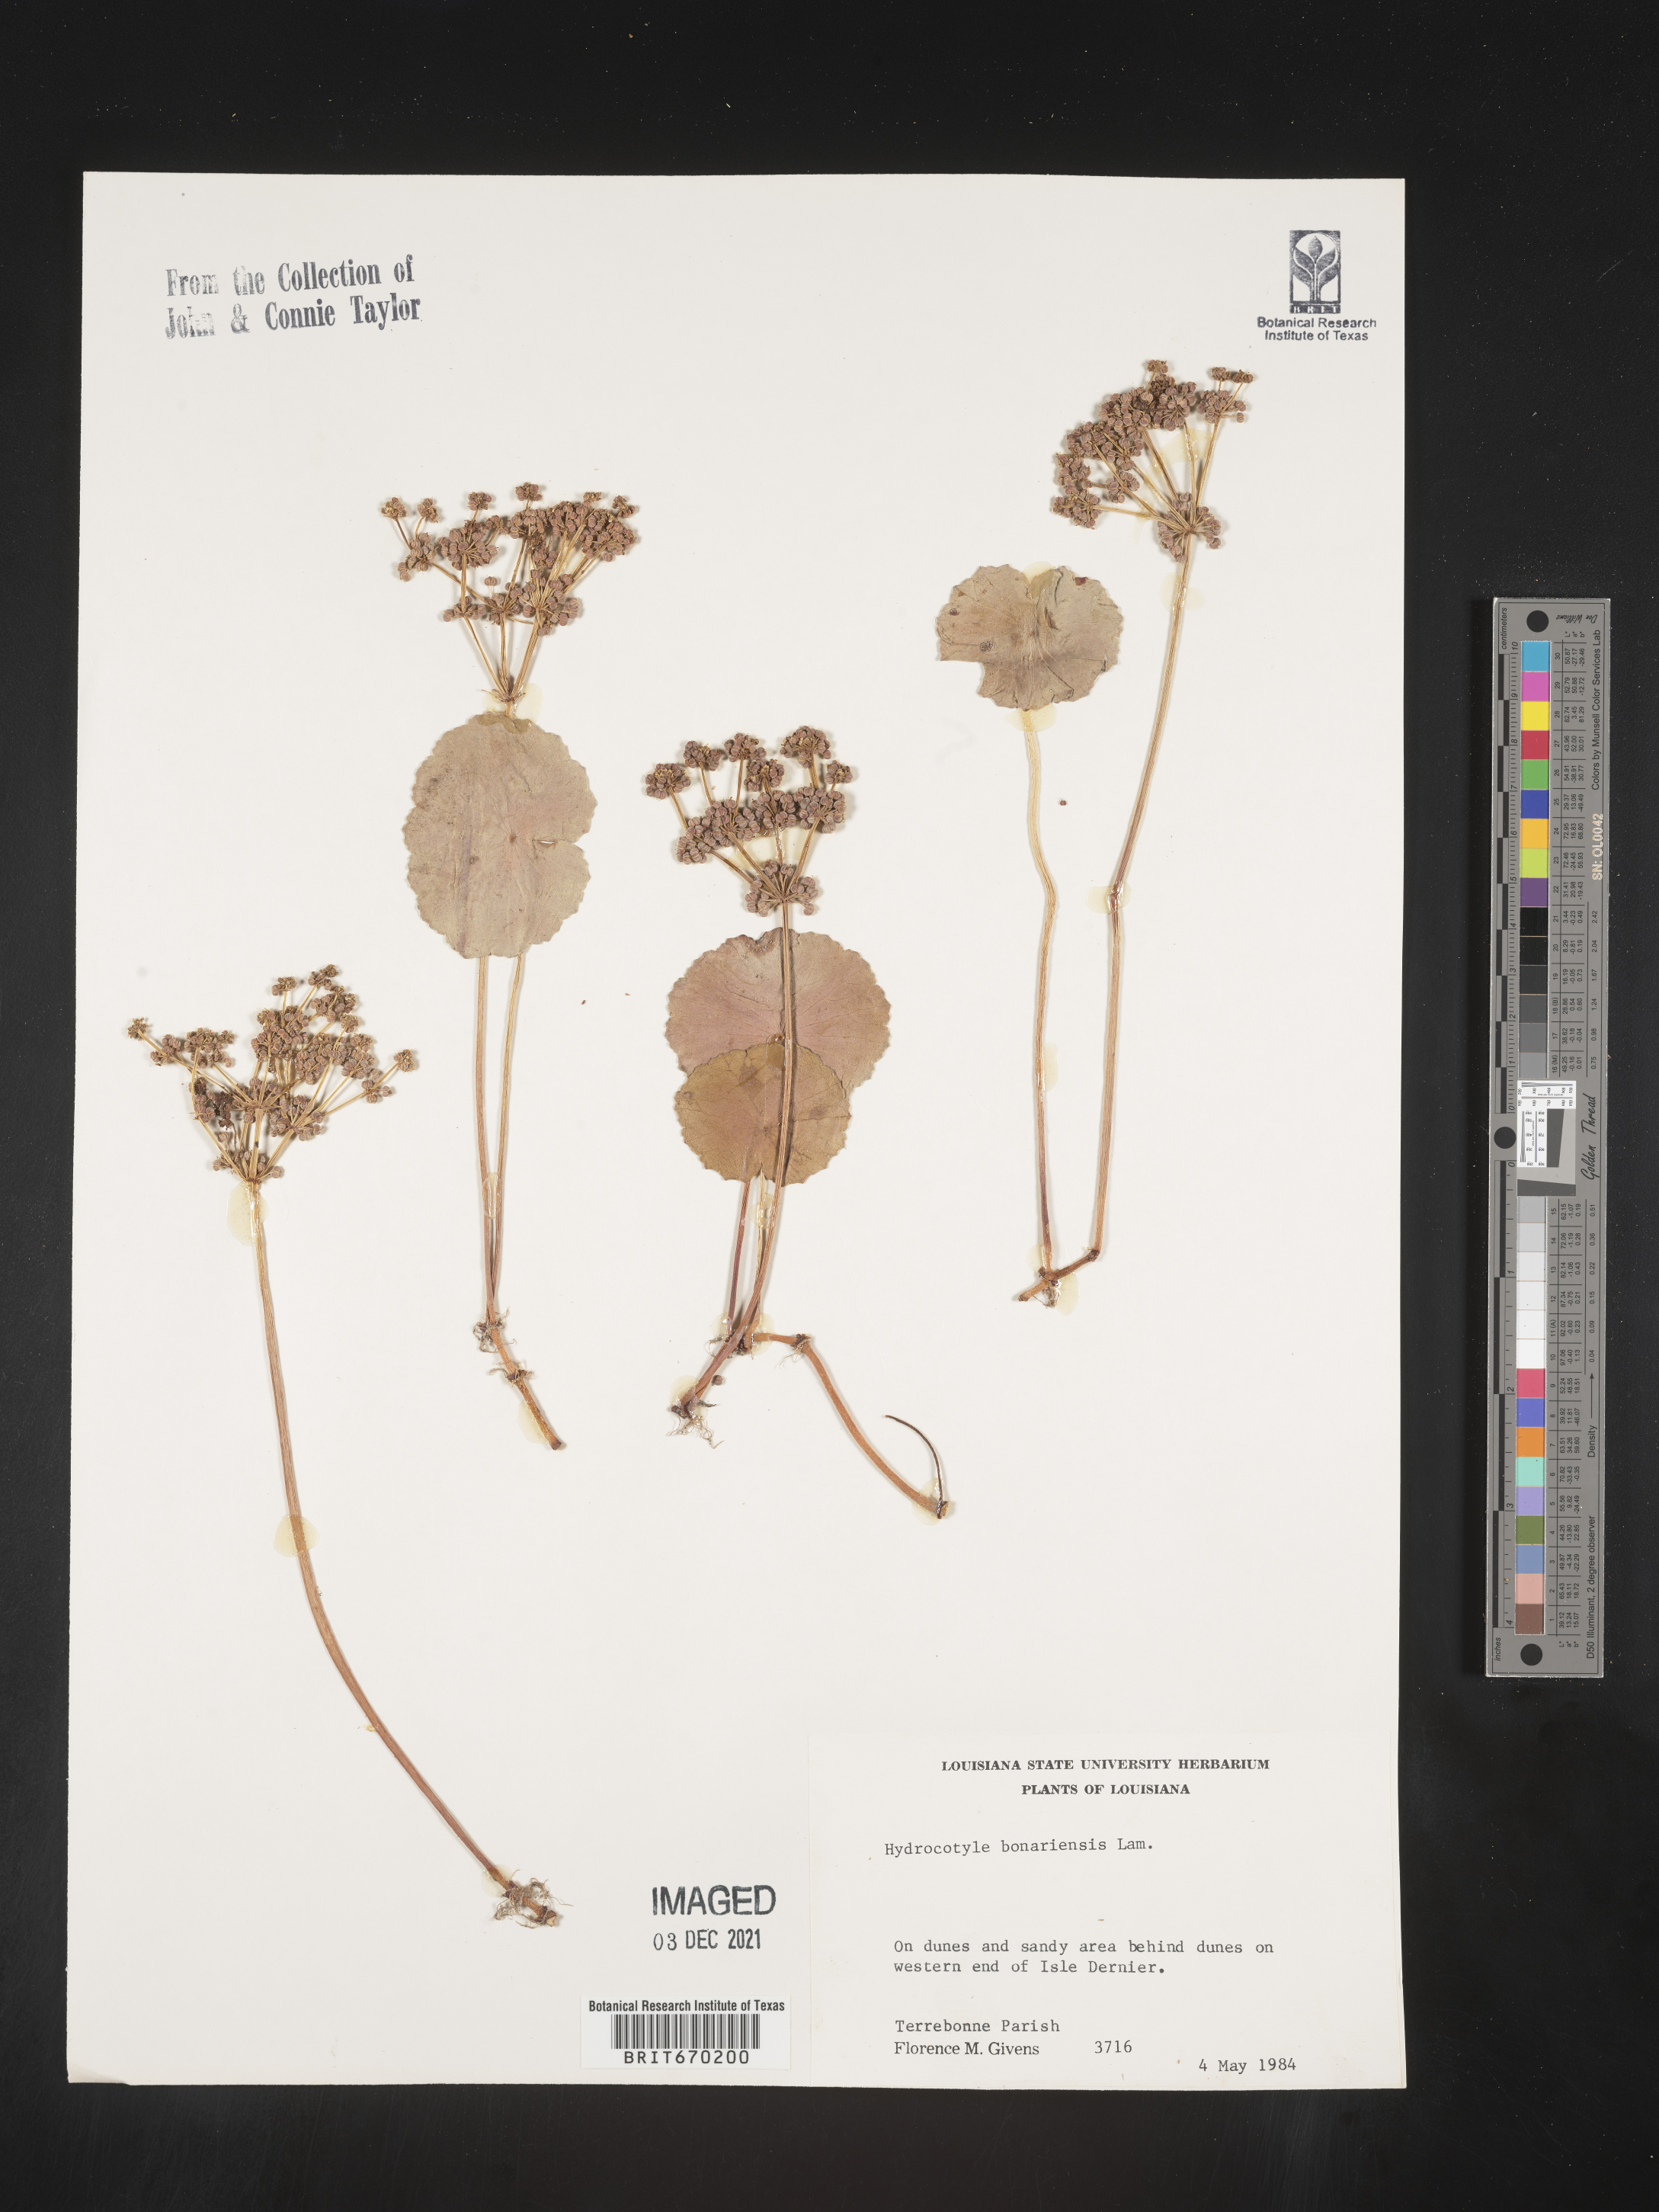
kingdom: Plantae
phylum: Tracheophyta
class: Magnoliopsida
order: Apiales
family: Araliaceae
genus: Hydrocotyle
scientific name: Hydrocotyle bonariensis
